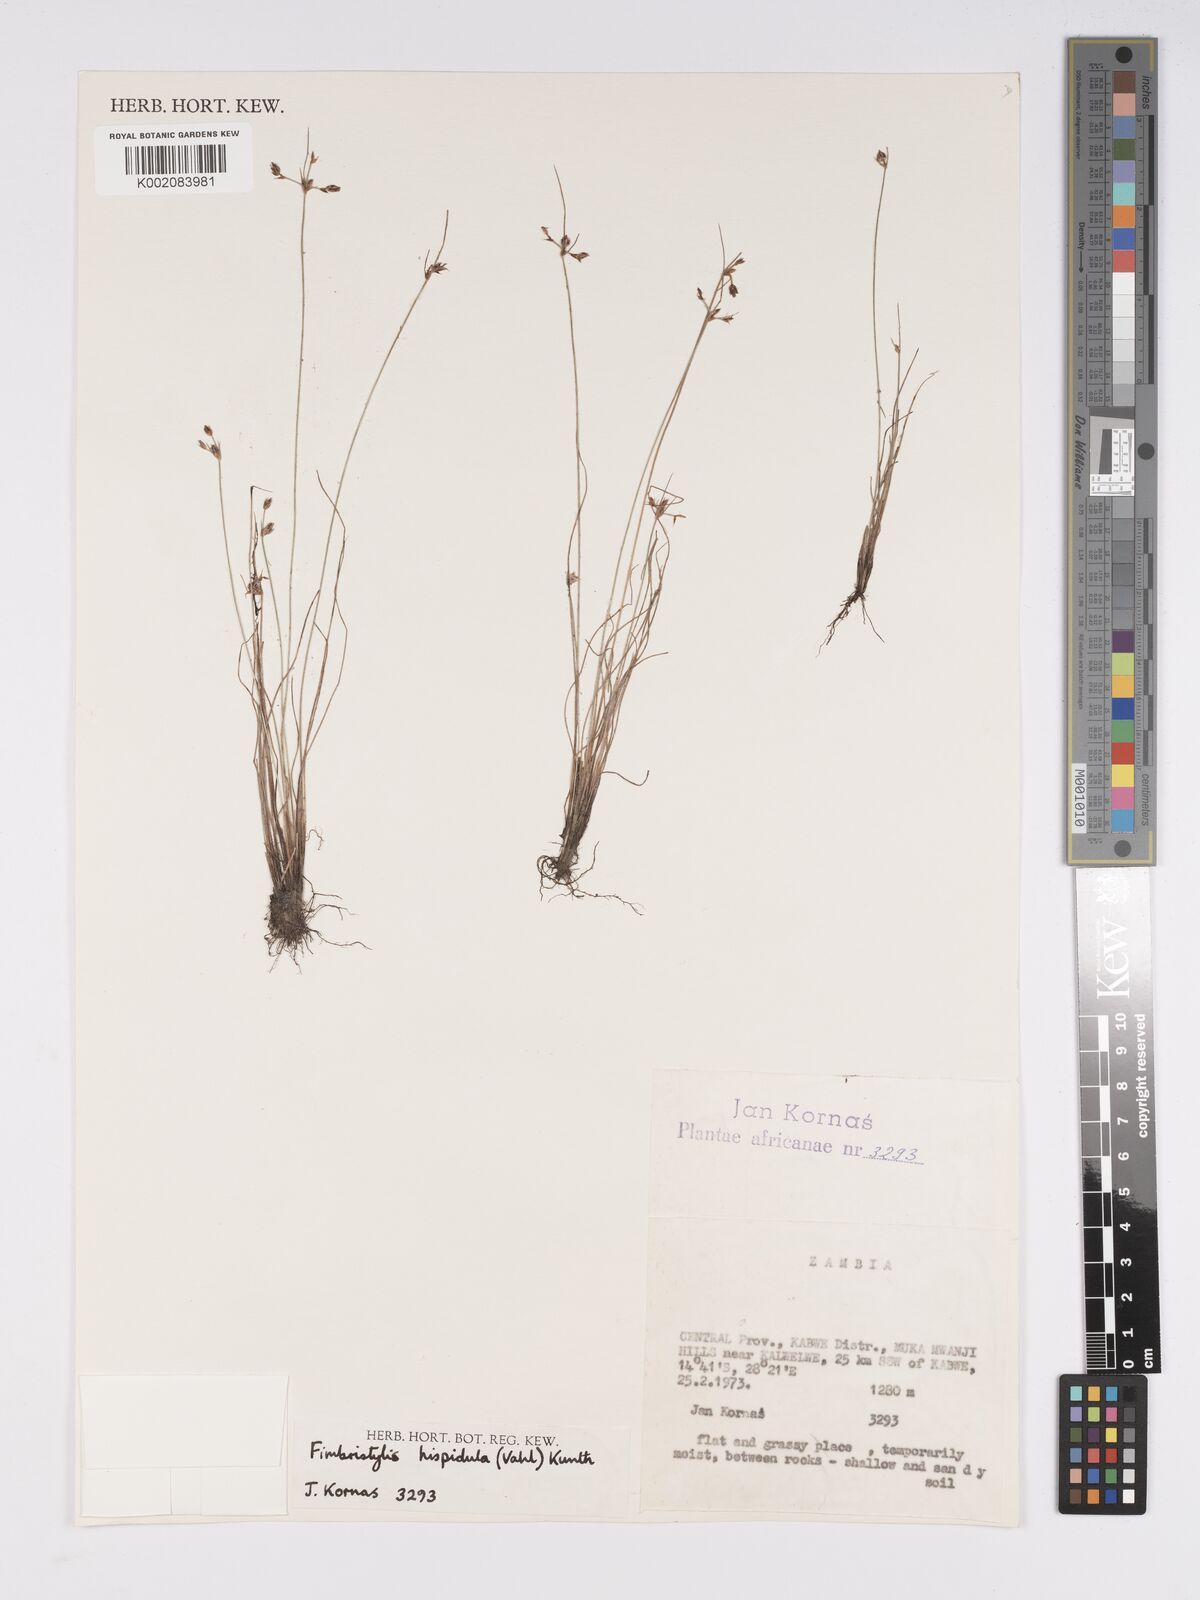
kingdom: Plantae
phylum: Tracheophyta
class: Liliopsida
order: Poales
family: Cyperaceae
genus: Bulbostylis
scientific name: Bulbostylis hispidula
